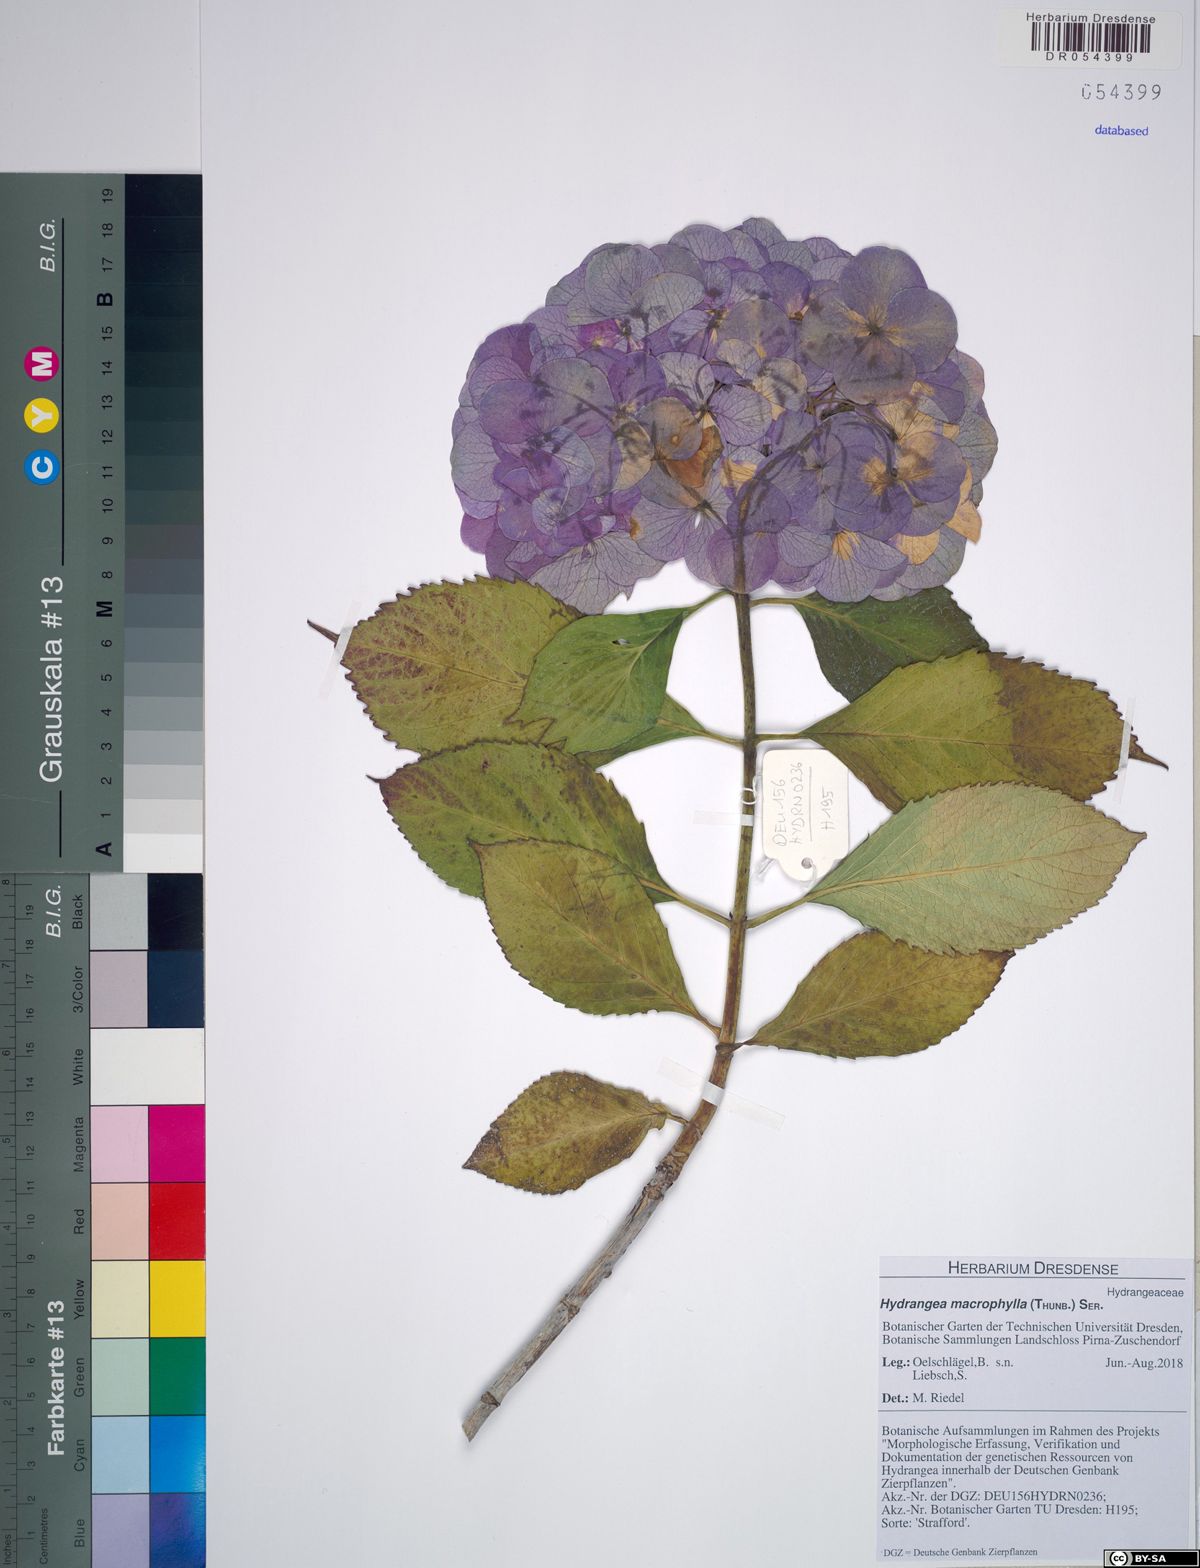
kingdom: Plantae
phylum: Tracheophyta
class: Magnoliopsida
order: Cornales
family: Hydrangeaceae
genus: Hydrangea
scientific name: Hydrangea macrophylla
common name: Hydrangea
